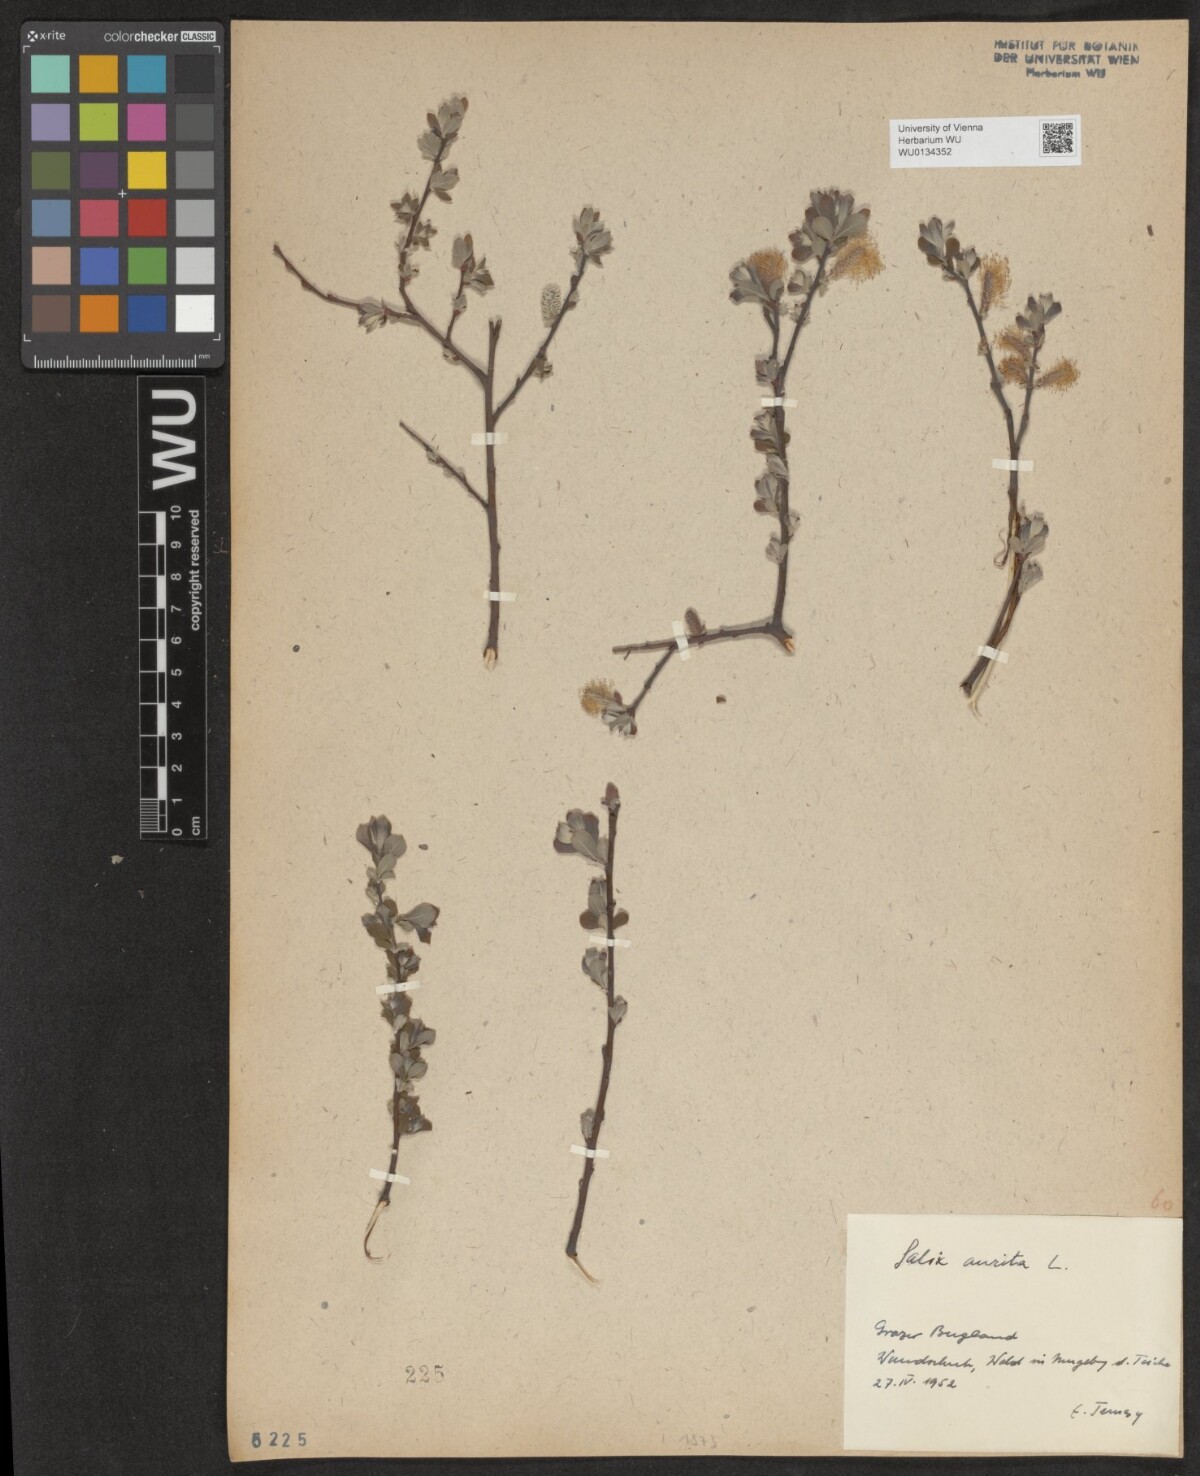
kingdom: Plantae
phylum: Tracheophyta
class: Magnoliopsida
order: Malpighiales
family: Salicaceae
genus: Salix
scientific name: Salix aurita
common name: Eared willow
